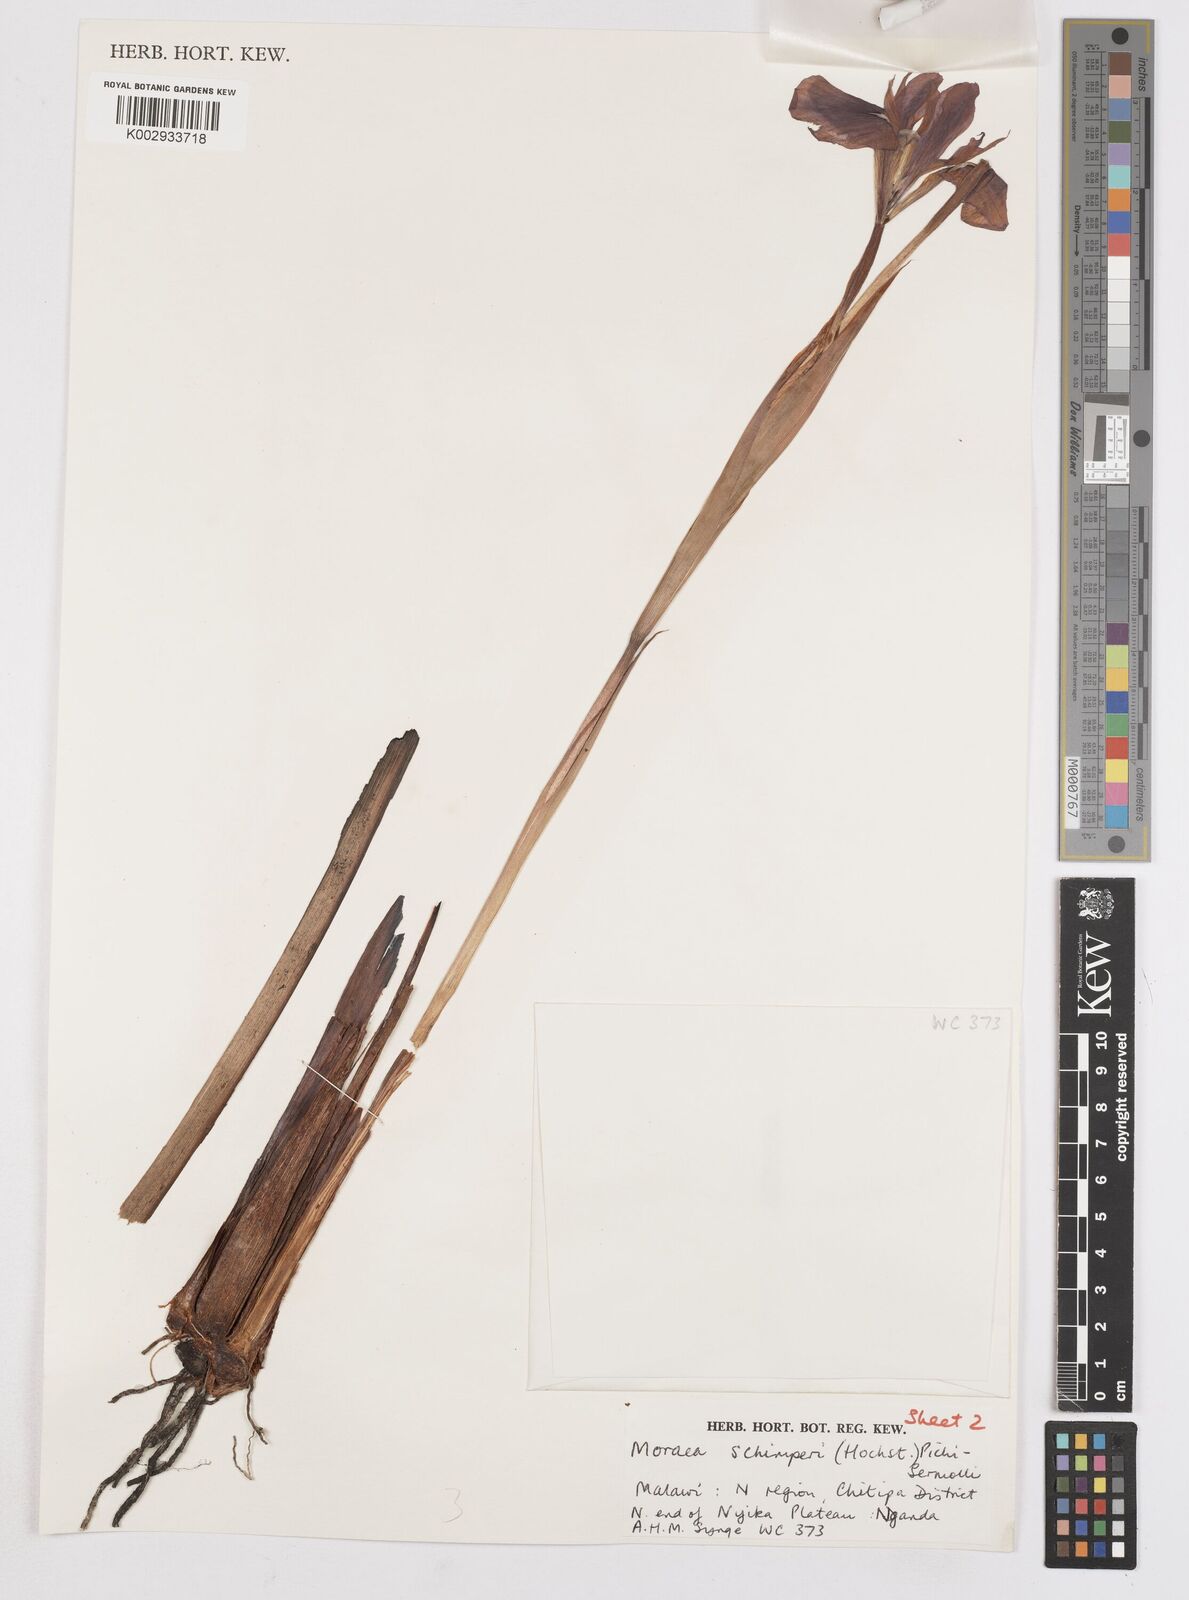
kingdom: Plantae
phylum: Tracheophyta
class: Liliopsida
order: Asparagales
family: Iridaceae
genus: Moraea
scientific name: Moraea schimperi
